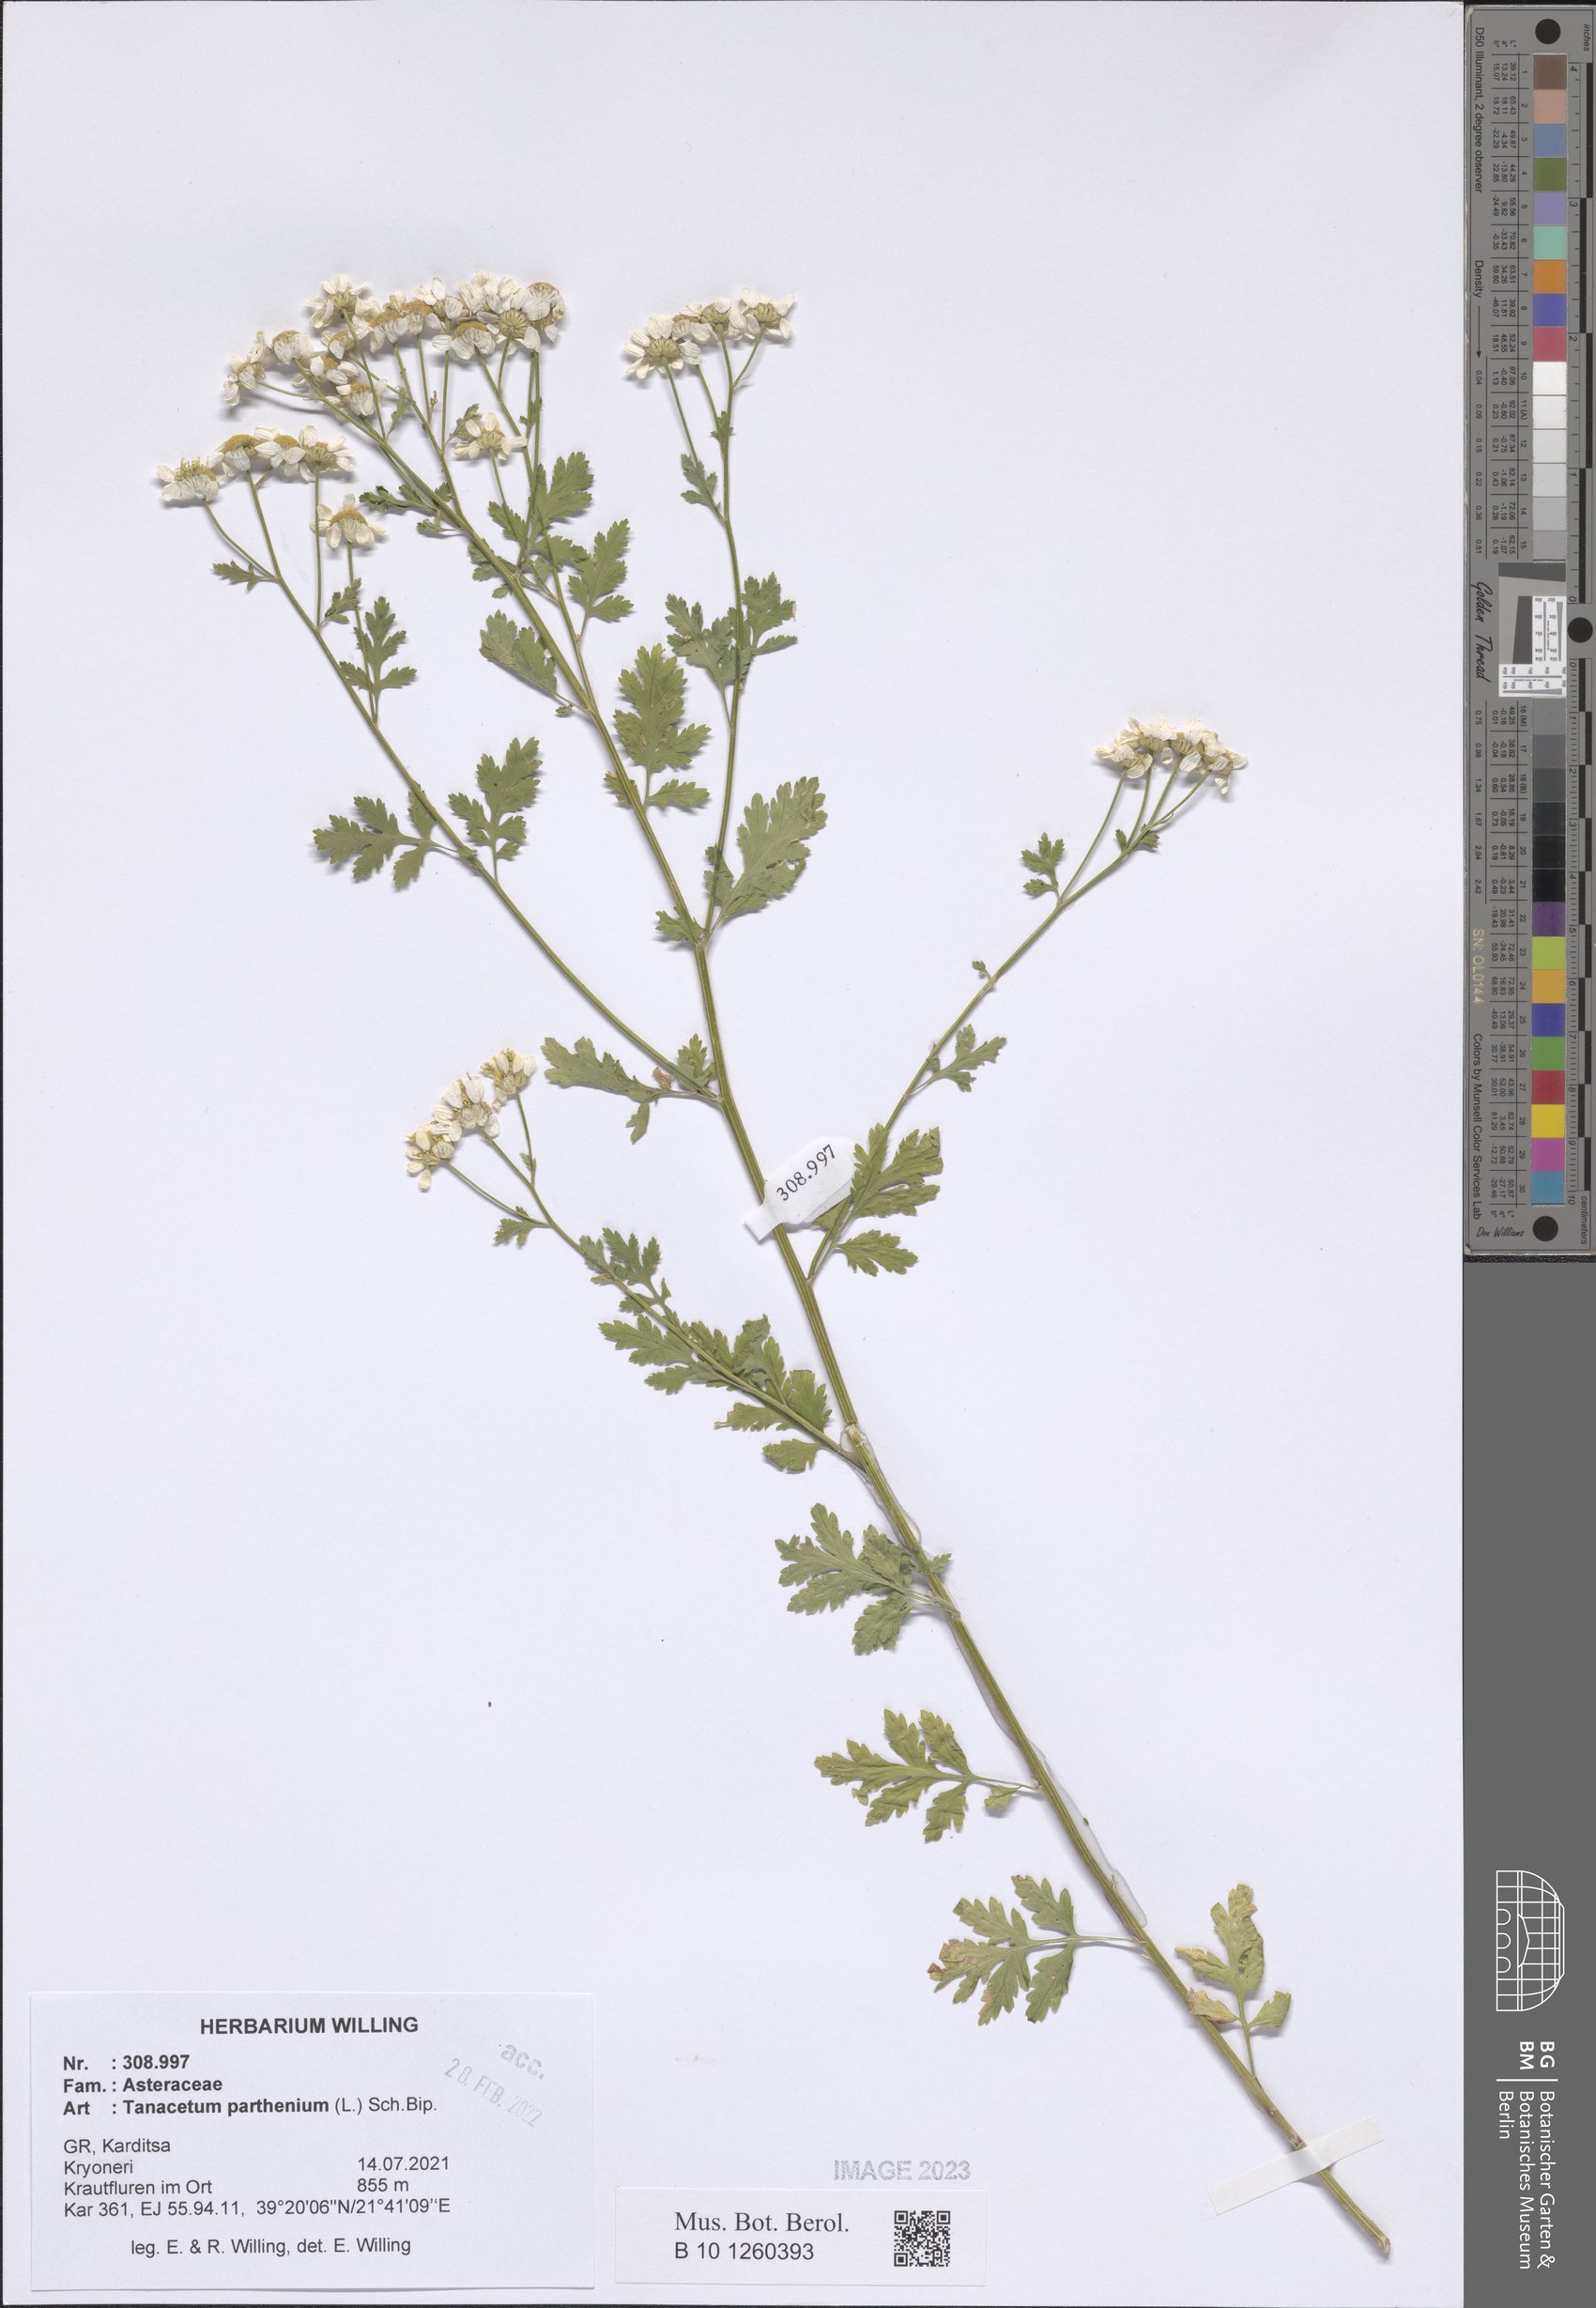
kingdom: Plantae
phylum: Tracheophyta
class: Magnoliopsida
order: Asterales
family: Asteraceae
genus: Tanacetum
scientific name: Tanacetum parthenium
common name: Feverfew
